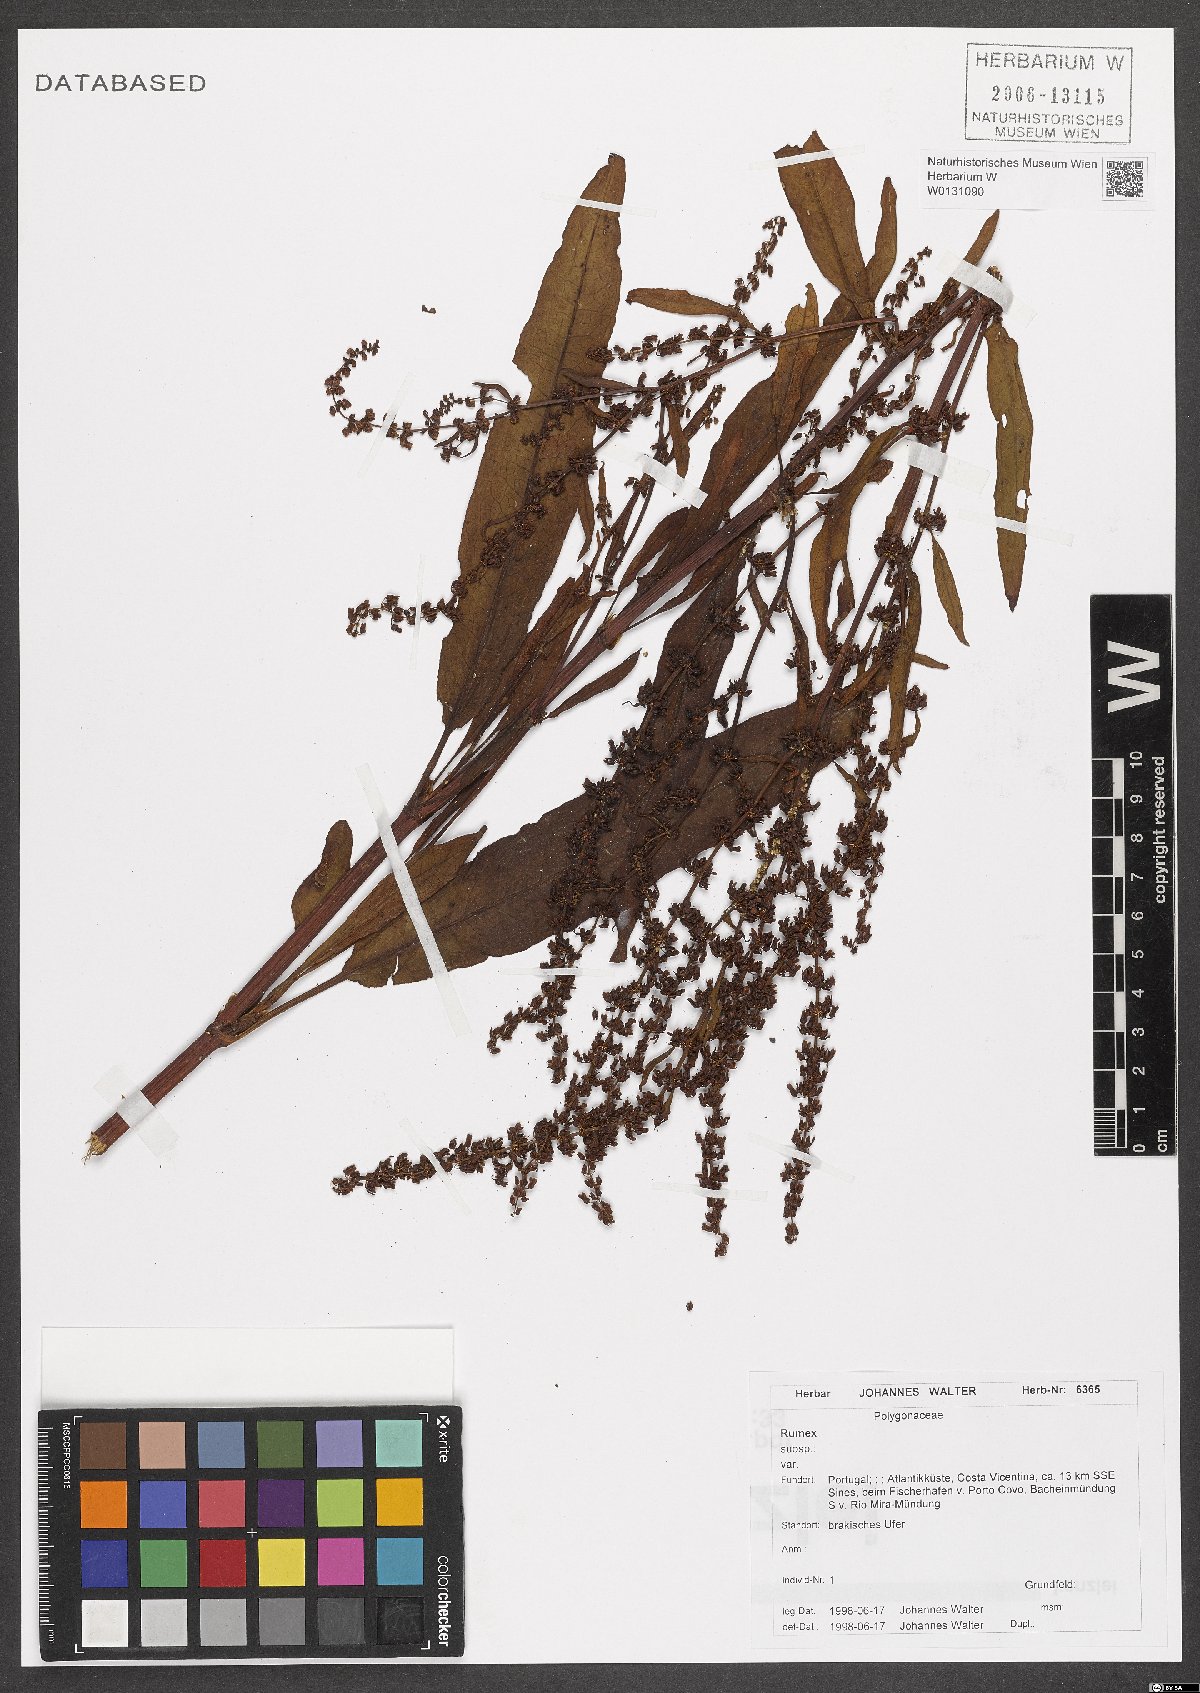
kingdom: Plantae
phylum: Tracheophyta
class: Magnoliopsida
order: Caryophyllales
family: Polygonaceae
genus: Rumex
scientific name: Rumex
